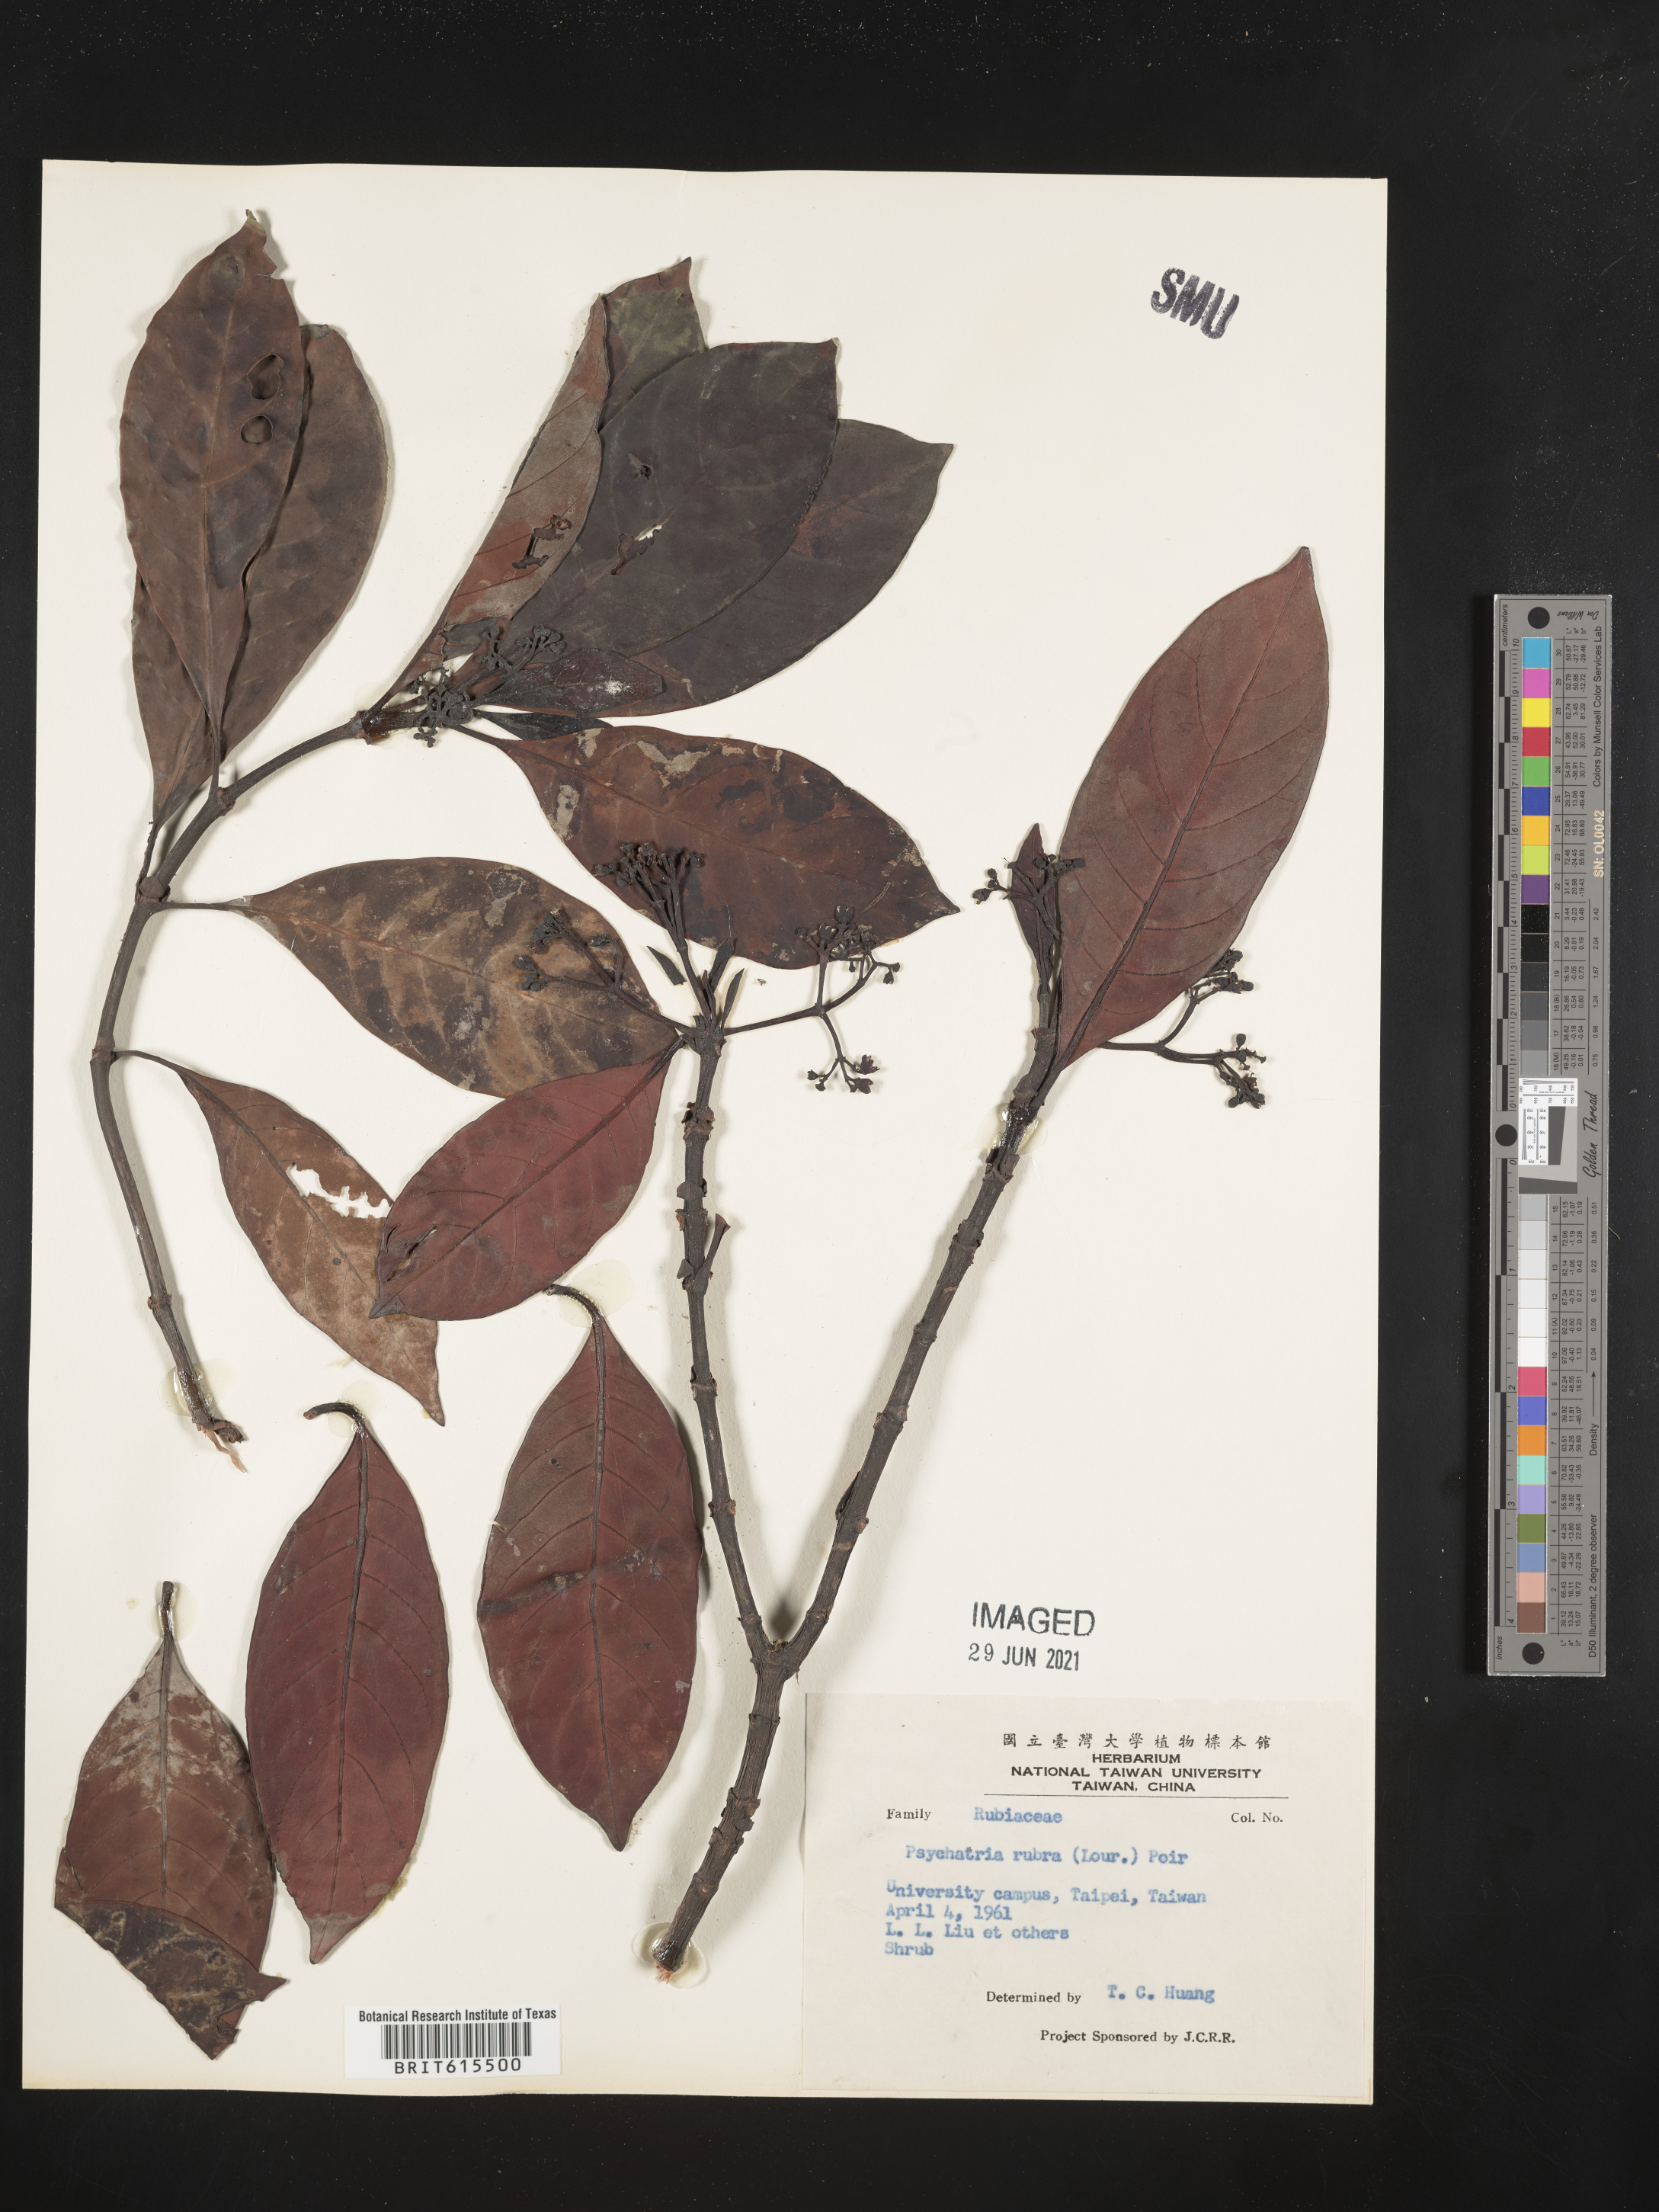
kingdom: Plantae
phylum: Tracheophyta
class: Magnoliopsida
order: Gentianales
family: Rubiaceae
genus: Psychotria
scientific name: Psychotria asiatica
